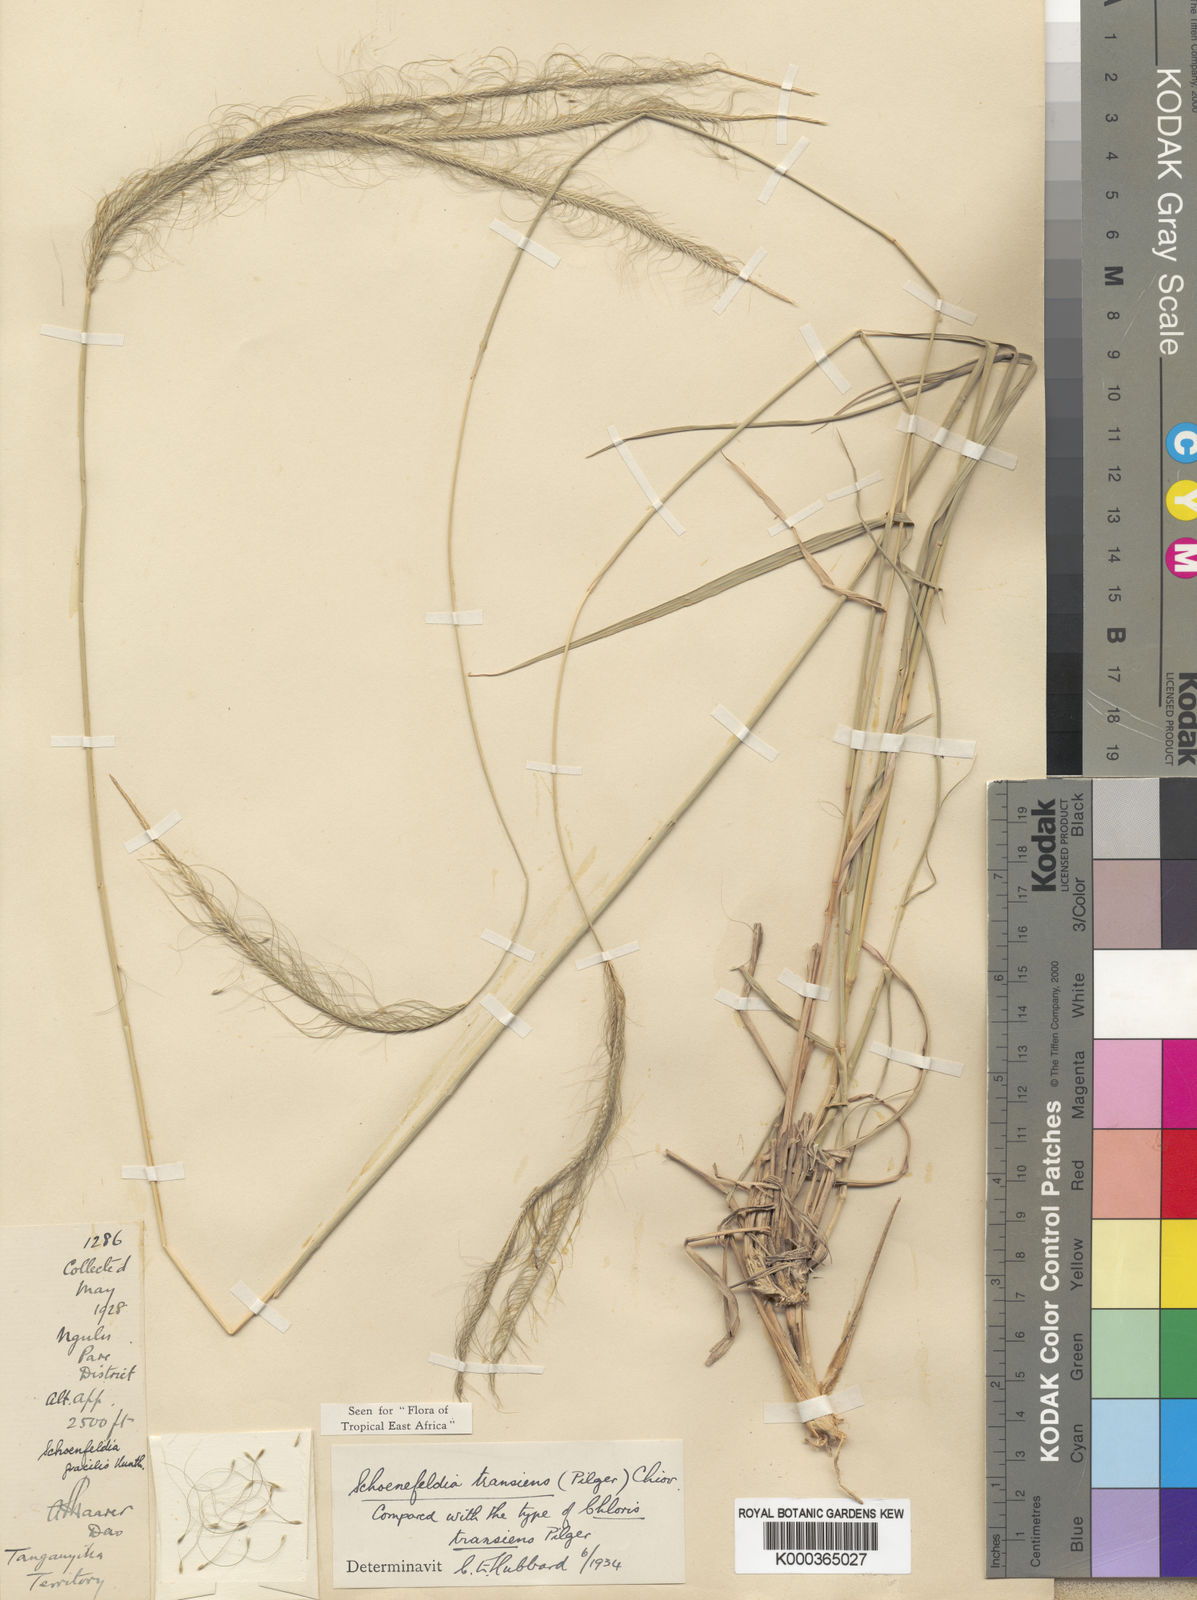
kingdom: Plantae
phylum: Tracheophyta
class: Liliopsida
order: Poales
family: Poaceae
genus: Schoenefeldia
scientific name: Schoenefeldia transiens
